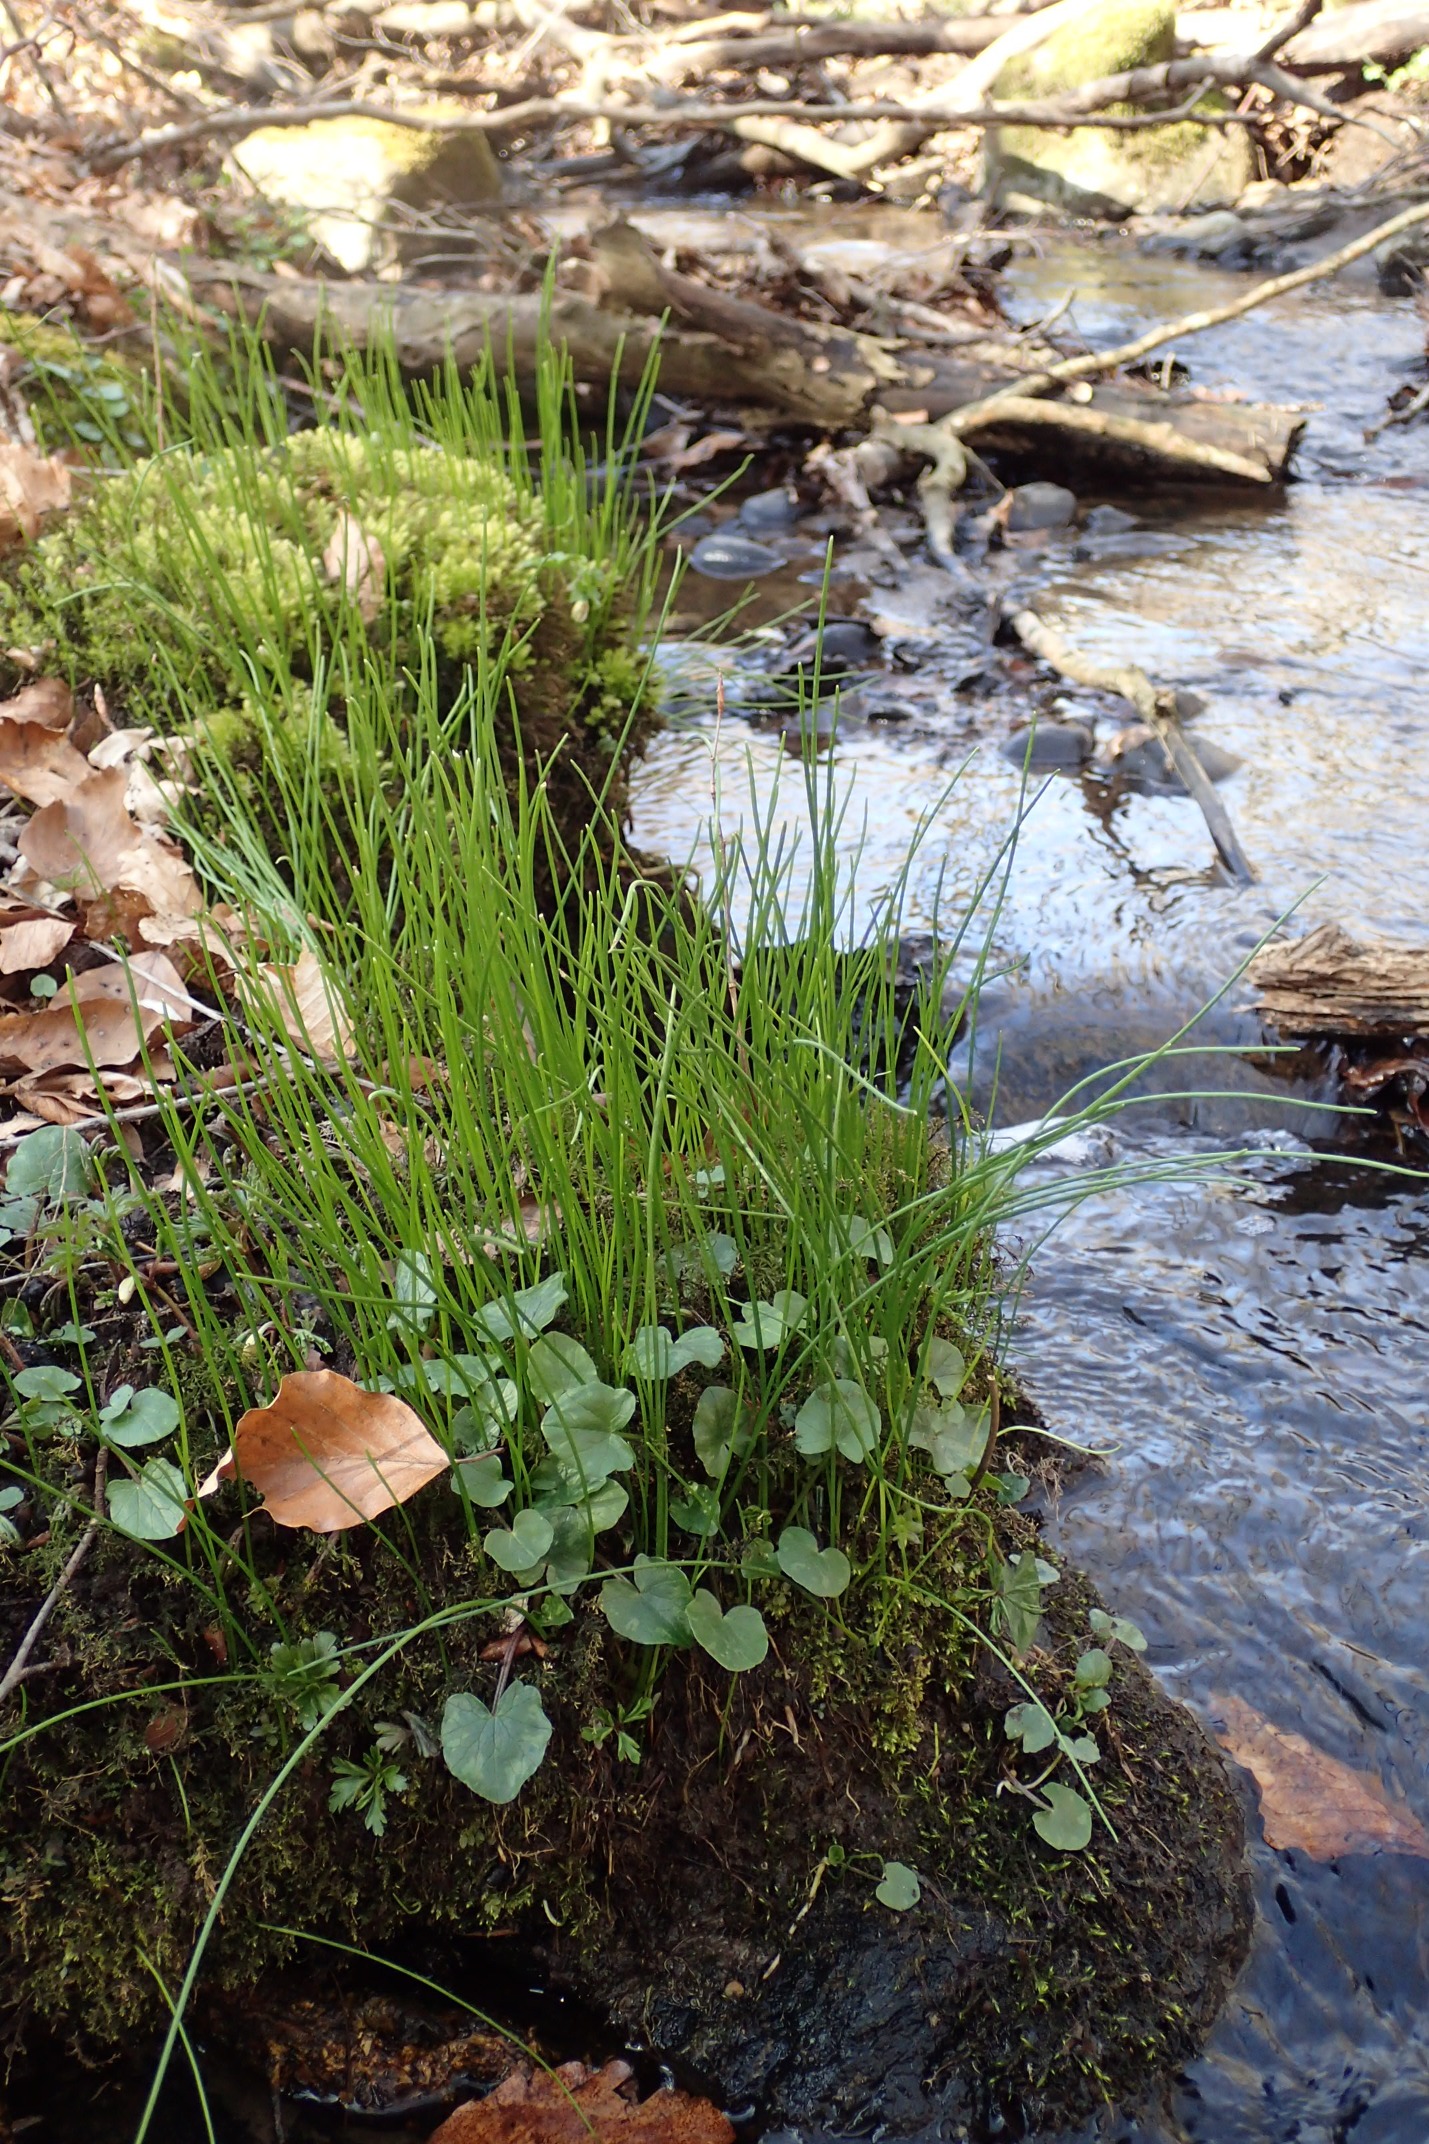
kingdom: Plantae
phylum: Tracheophyta
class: Liliopsida
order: Liliales
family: Liliaceae
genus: Gagea
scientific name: Gagea spathacea
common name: Hylster-guldstjerne
